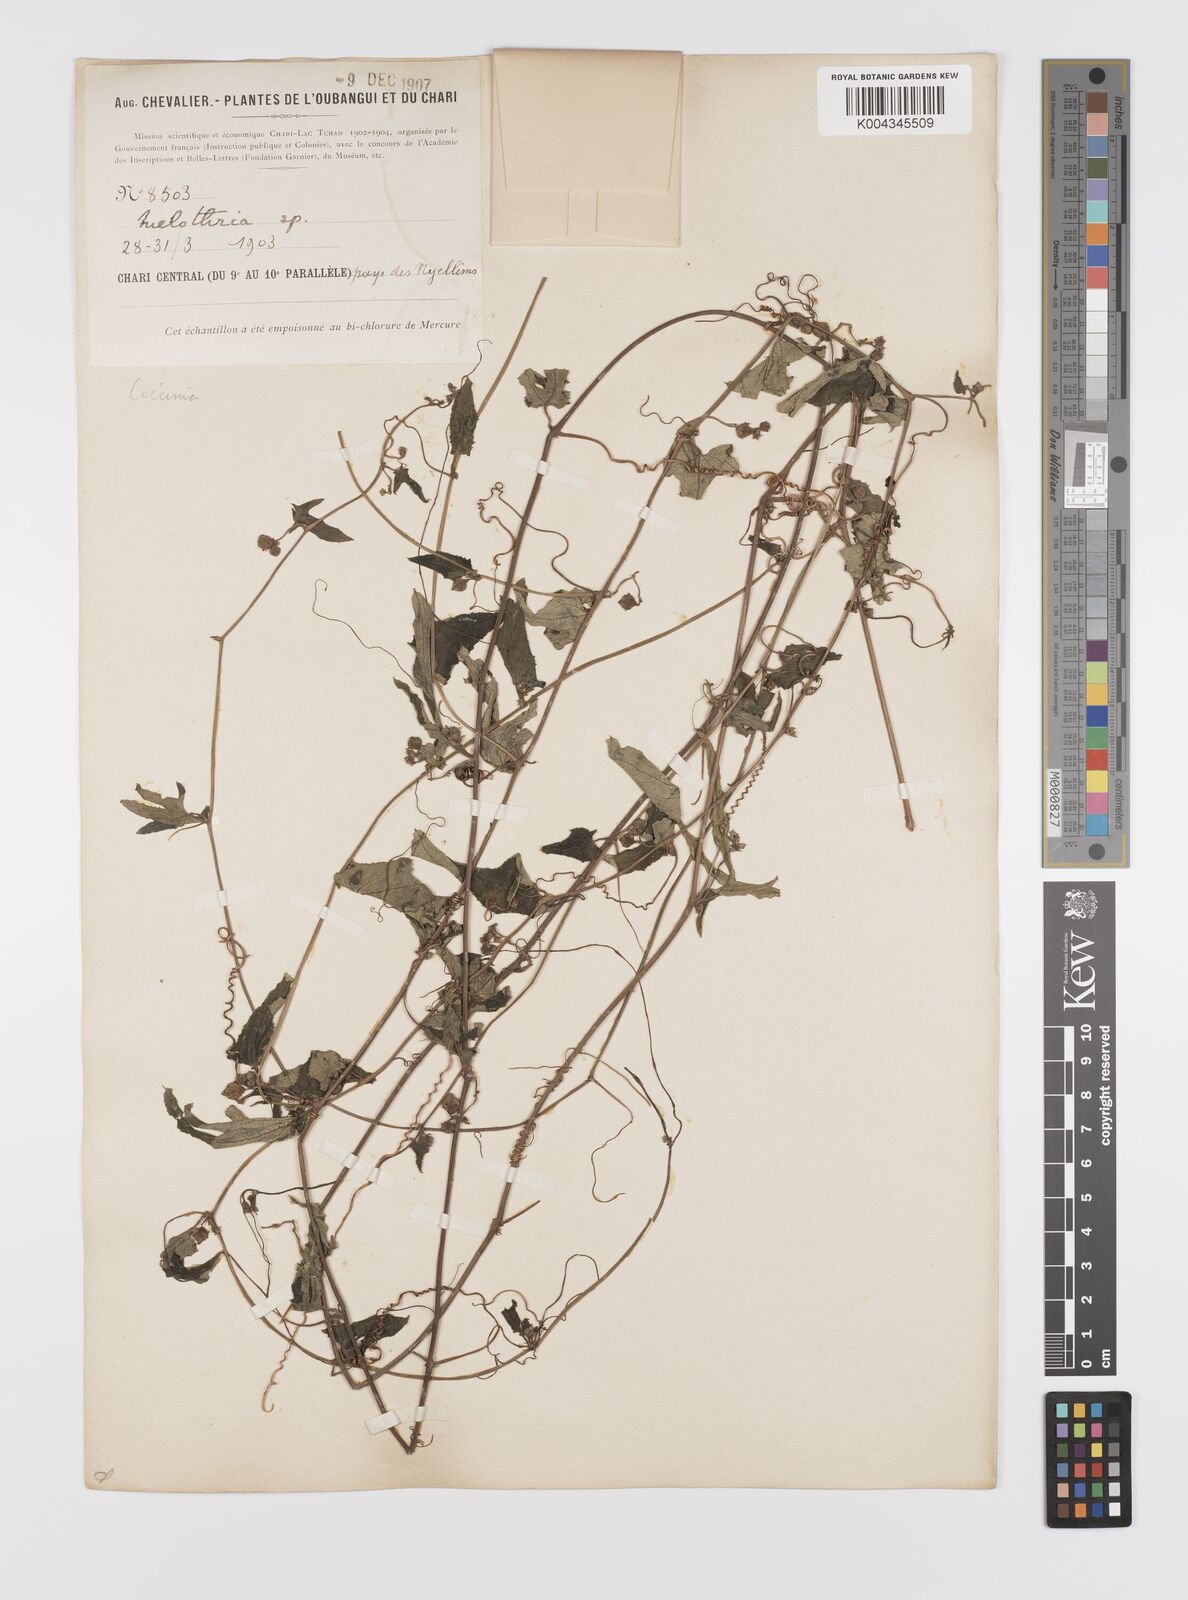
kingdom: Plantae
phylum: Tracheophyta
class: Magnoliopsida
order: Cucurbitales
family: Cucurbitaceae
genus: Coccinia
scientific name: Coccinia adoensis
